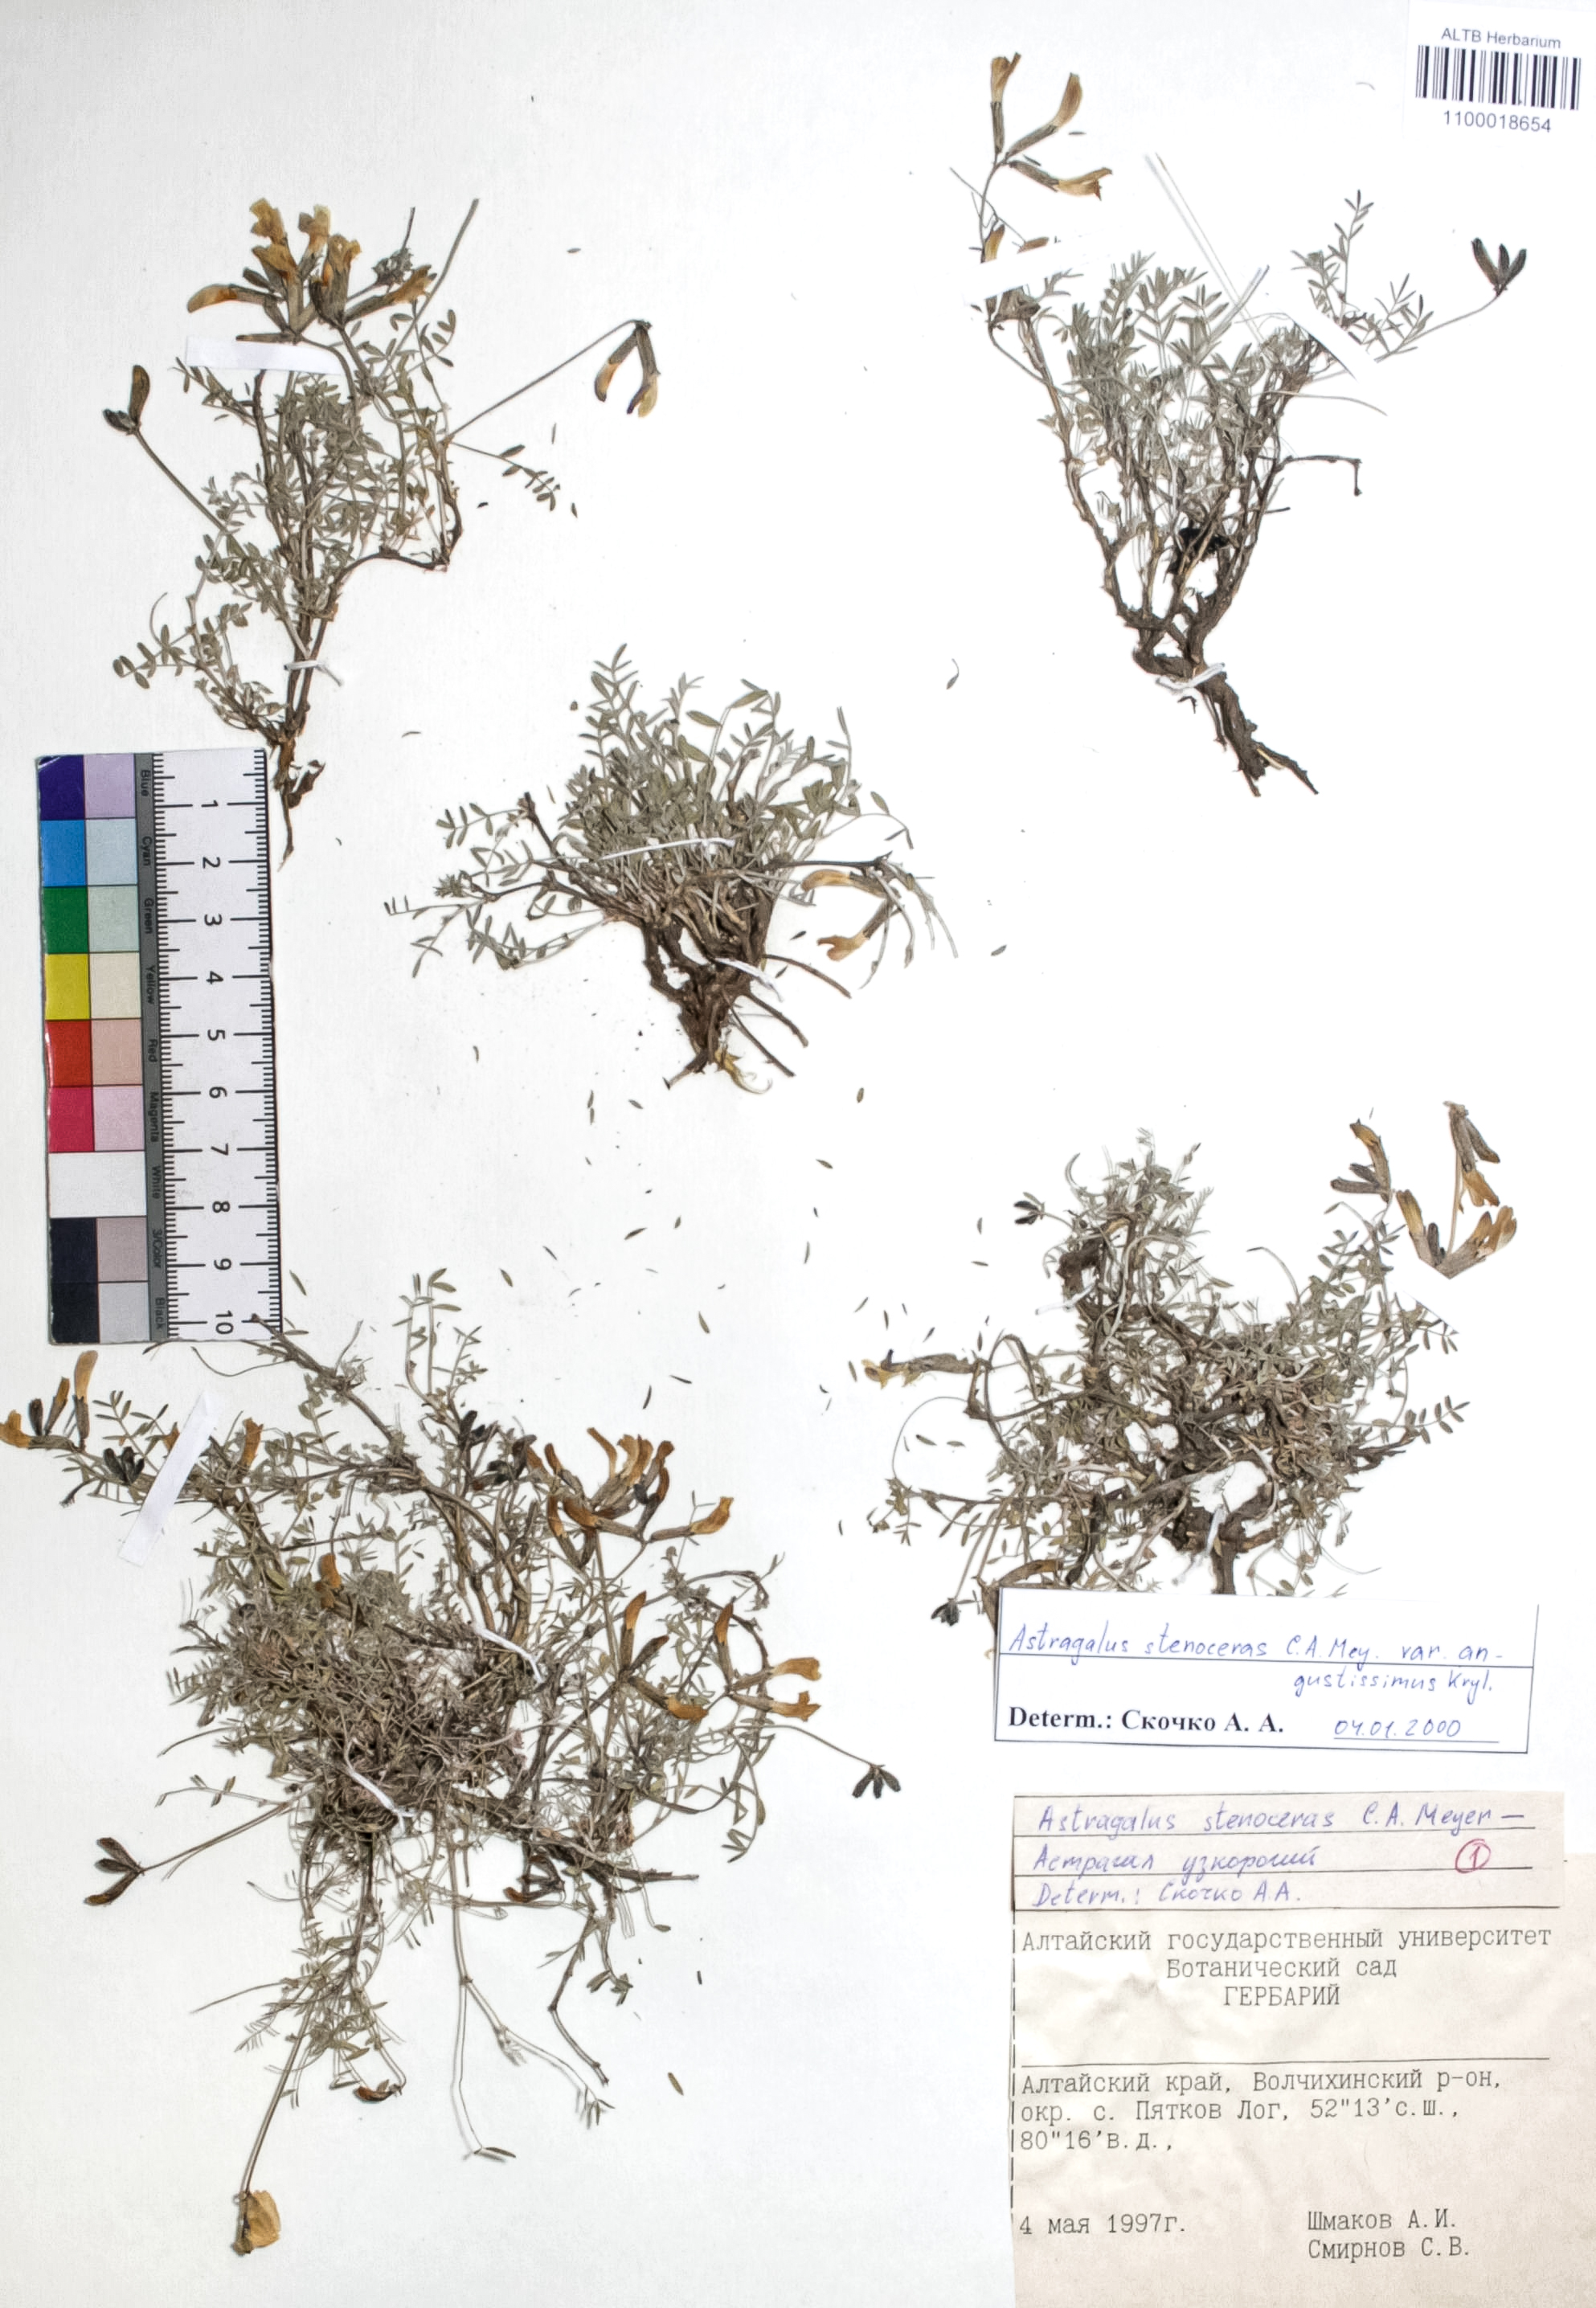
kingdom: Plantae
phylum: Tracheophyta
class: Magnoliopsida
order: Fabales
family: Fabaceae
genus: Astragalus
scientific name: Astragalus stenoceras
